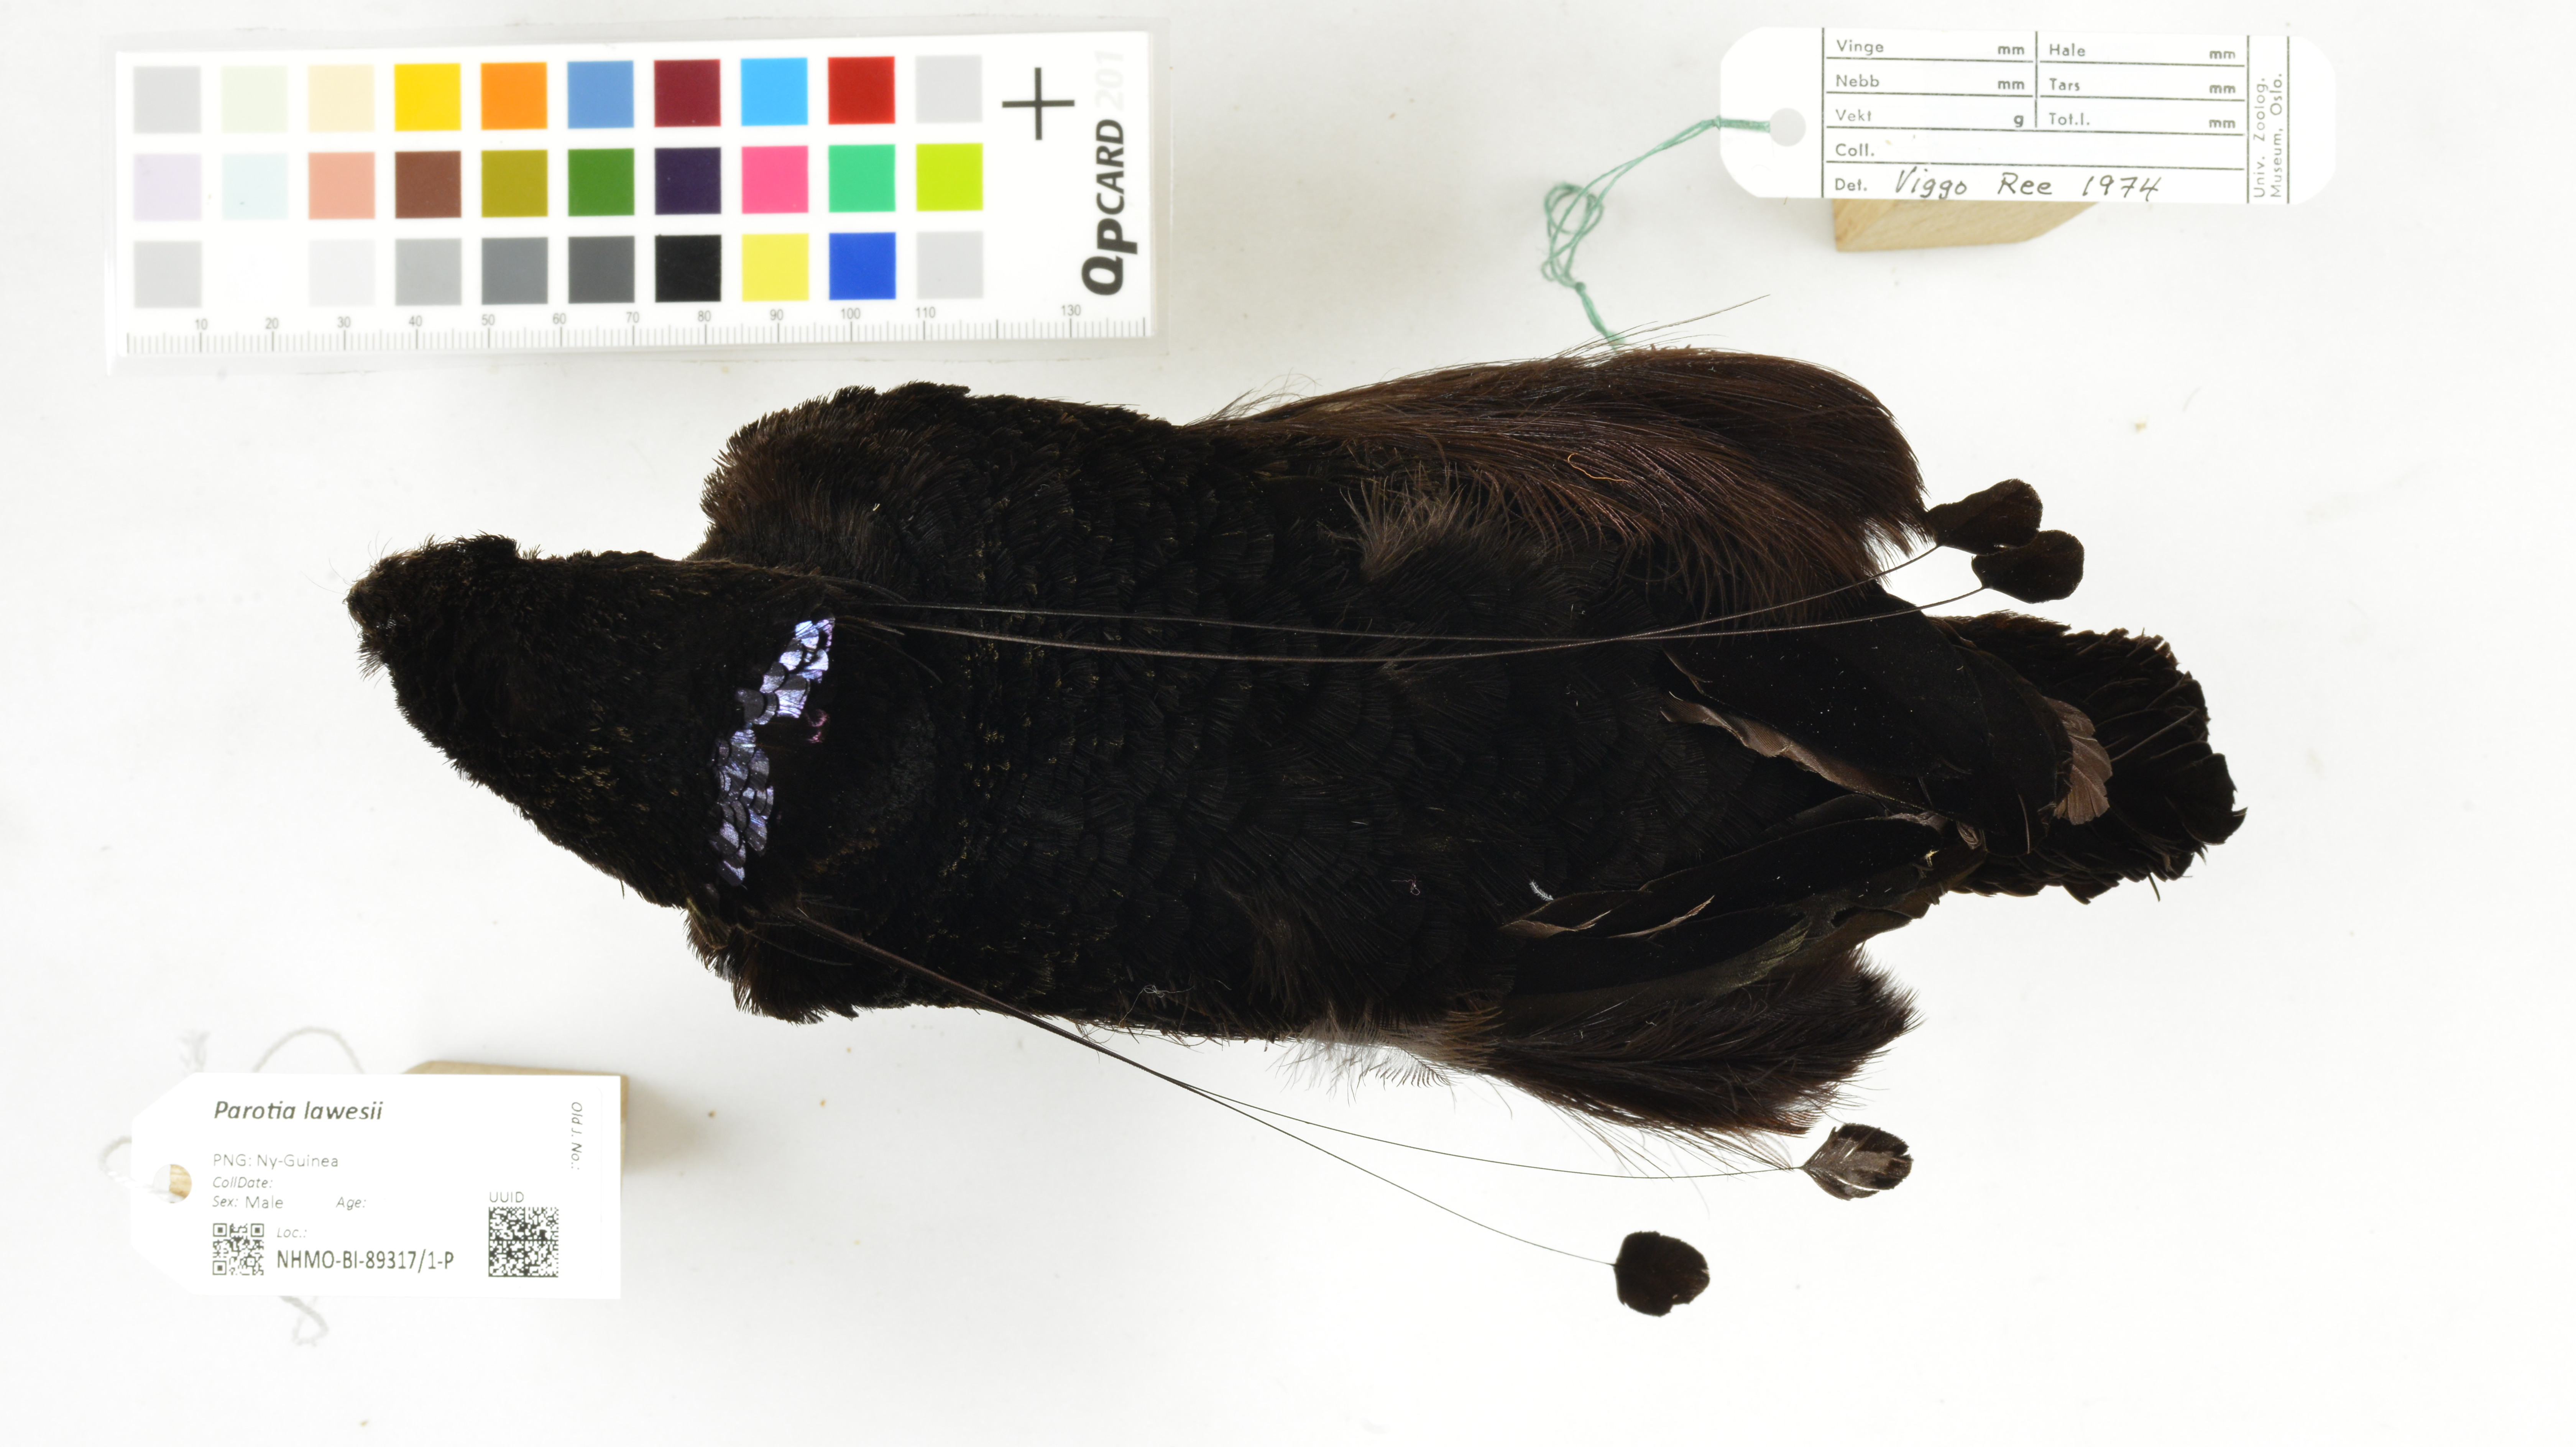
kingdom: Animalia
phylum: Chordata
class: Aves
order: Passeriformes
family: Paradisaeidae
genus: Parotia
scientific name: Parotia lawesii
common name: Lawes's parotia
